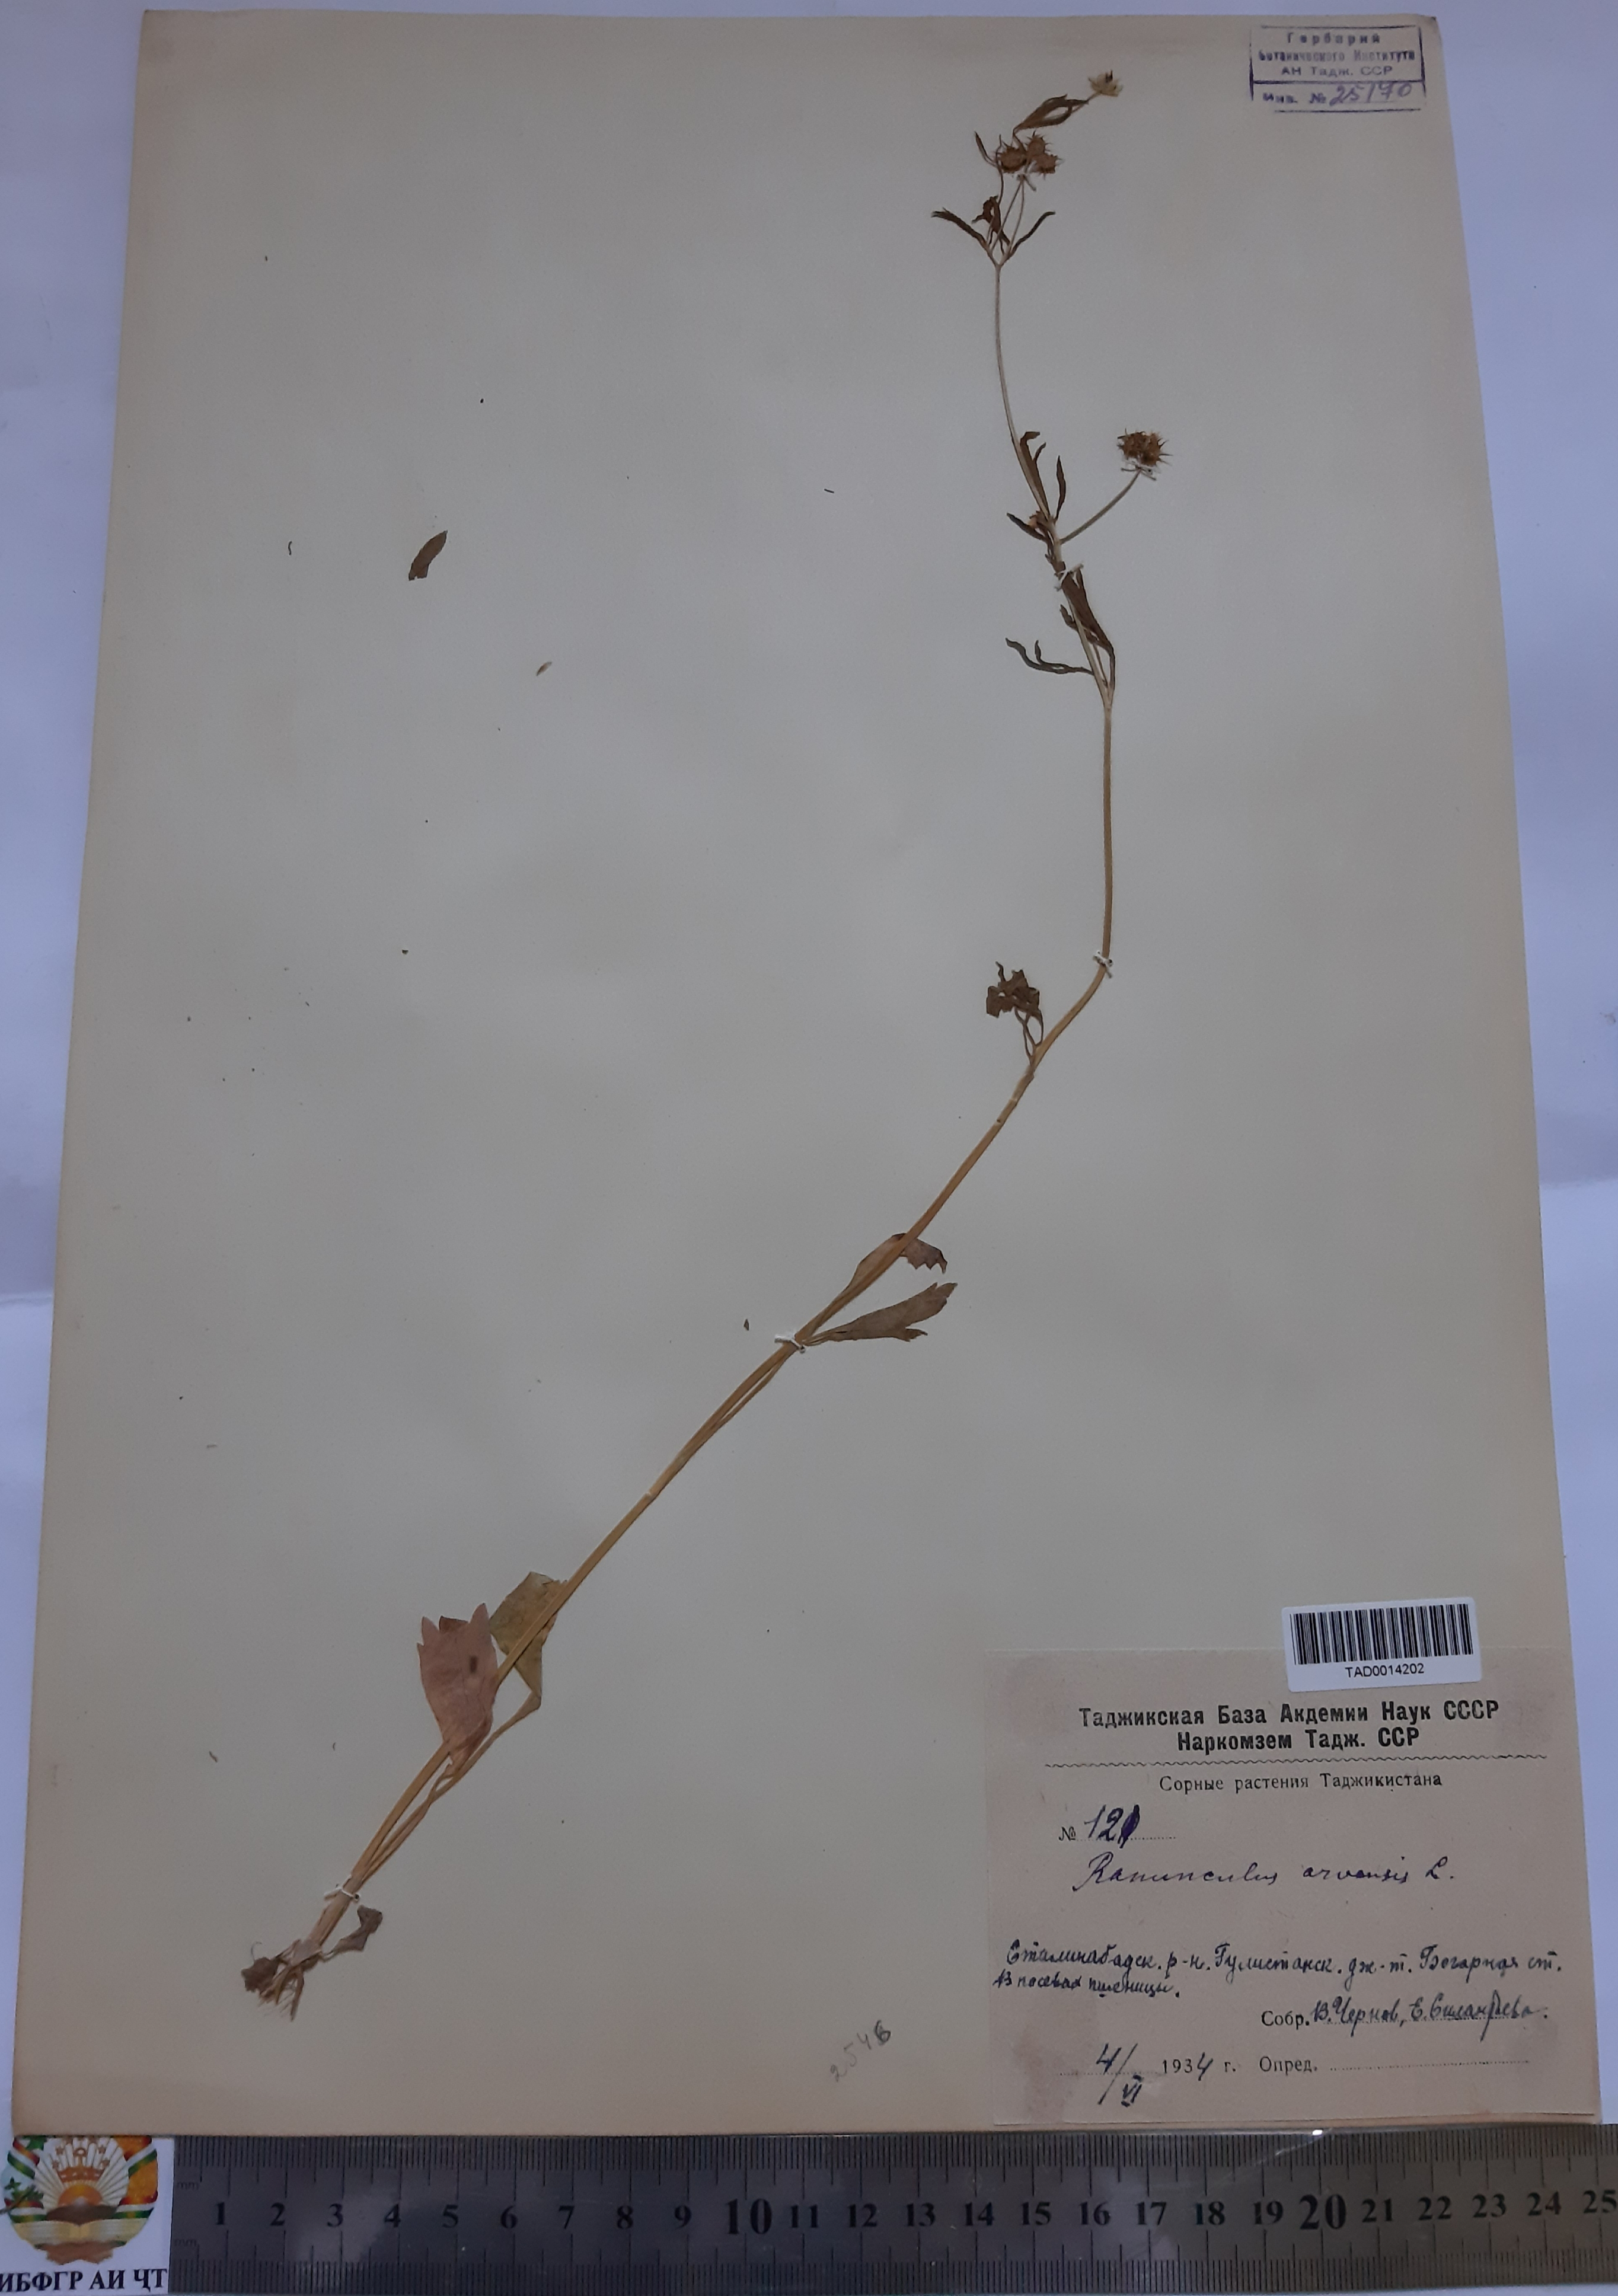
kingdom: Plantae
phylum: Tracheophyta
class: Magnoliopsida
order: Ranunculales
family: Ranunculaceae
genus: Ranunculus
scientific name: Ranunculus arvensis
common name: Corn buttercup
